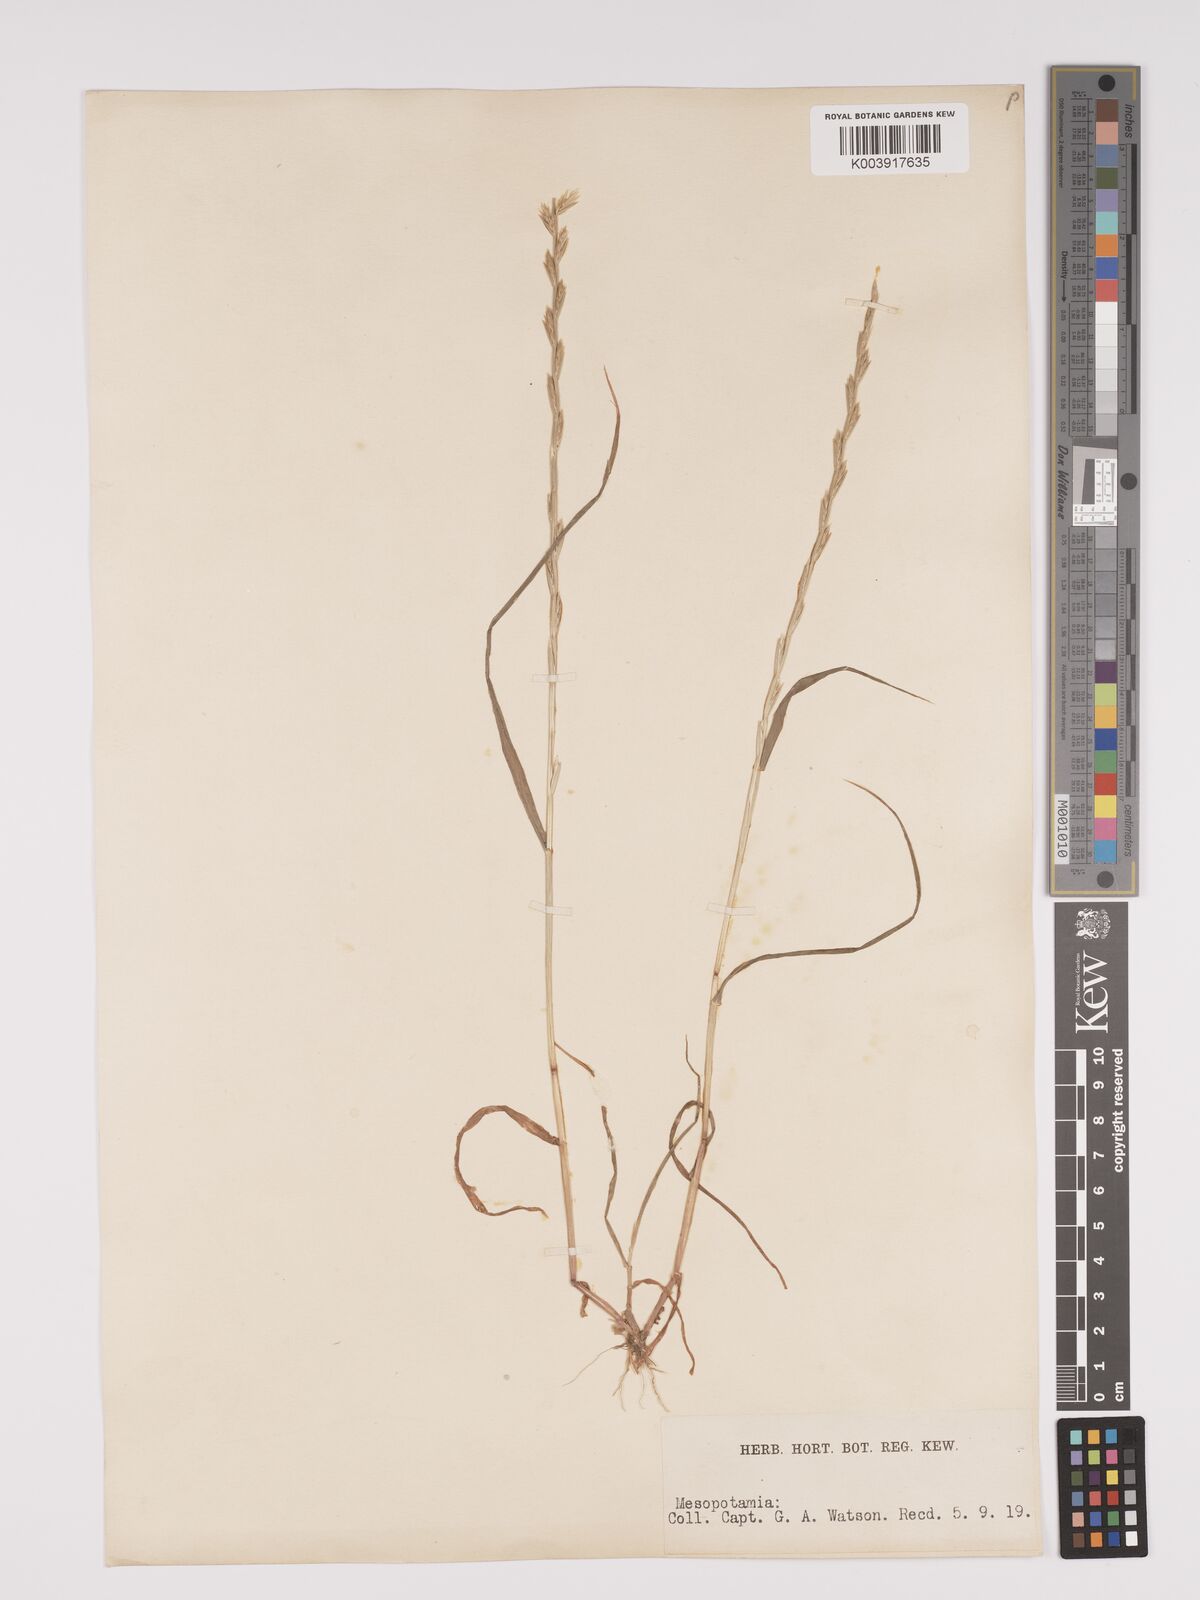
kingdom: Plantae
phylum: Tracheophyta
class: Liliopsida
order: Poales
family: Poaceae
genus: Lolium
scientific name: Lolium
